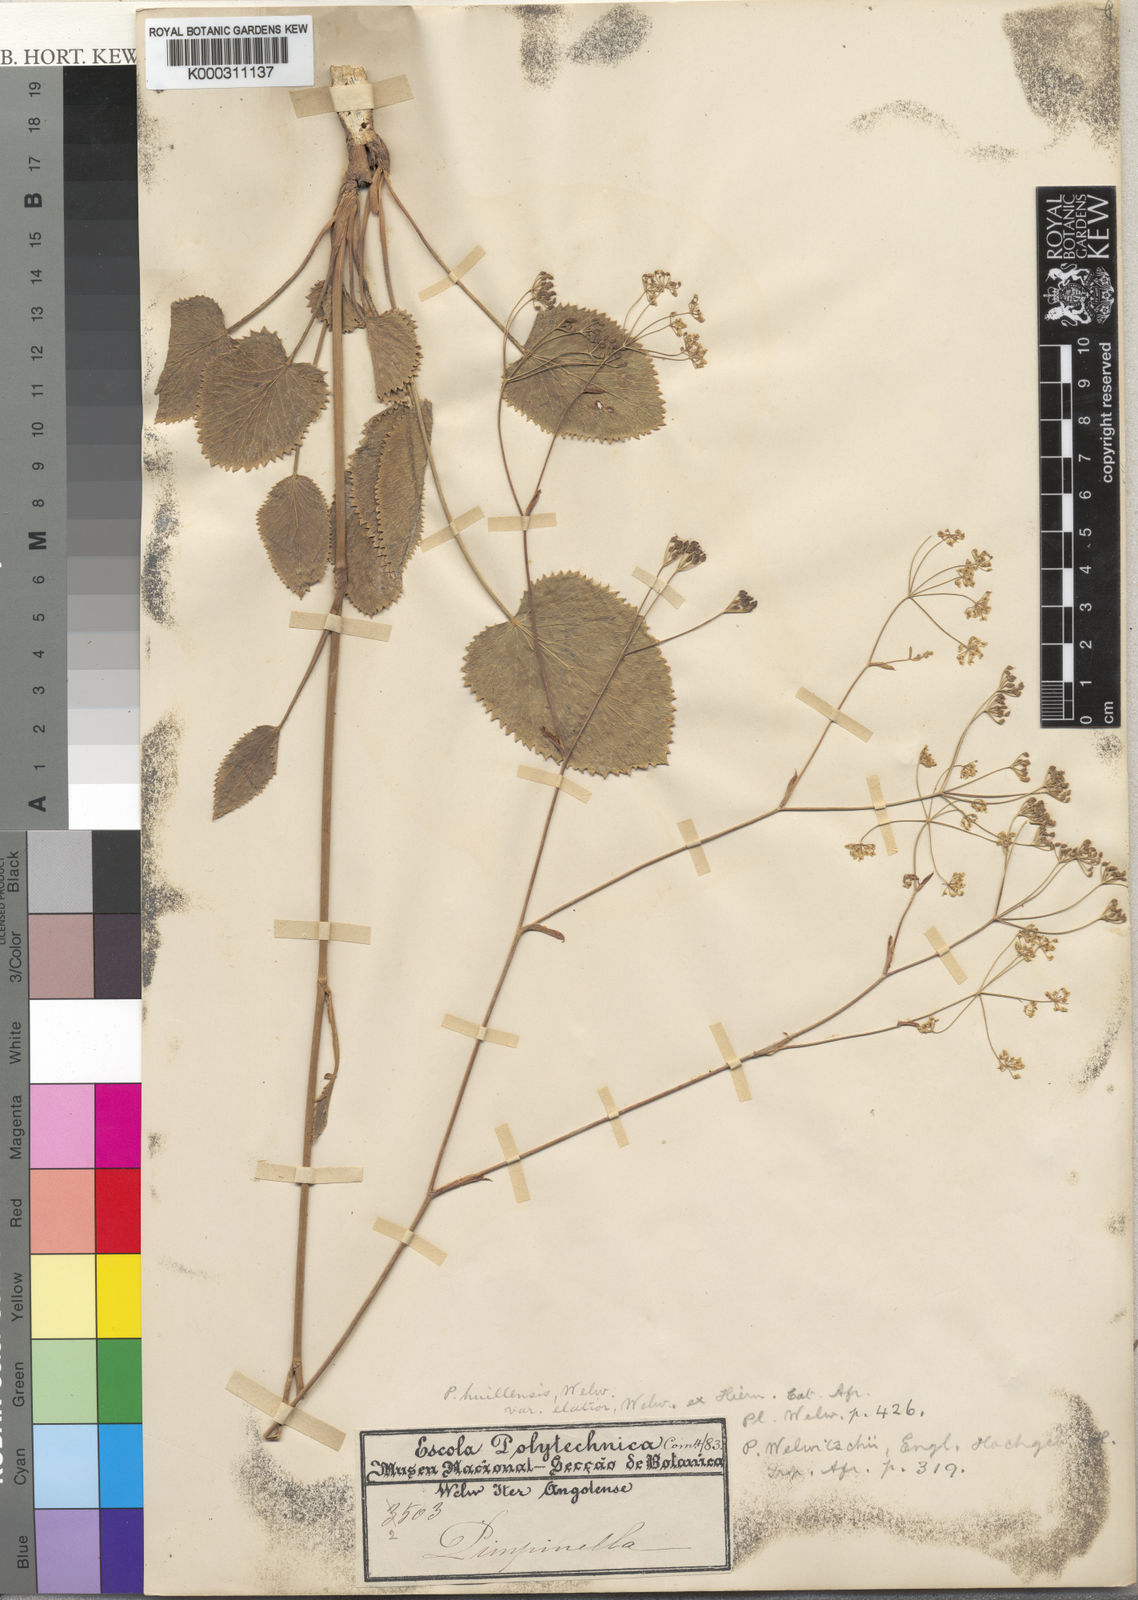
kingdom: Plantae
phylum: Tracheophyta
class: Magnoliopsida
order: Apiales
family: Apiaceae
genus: Pimpinella
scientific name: Pimpinella
